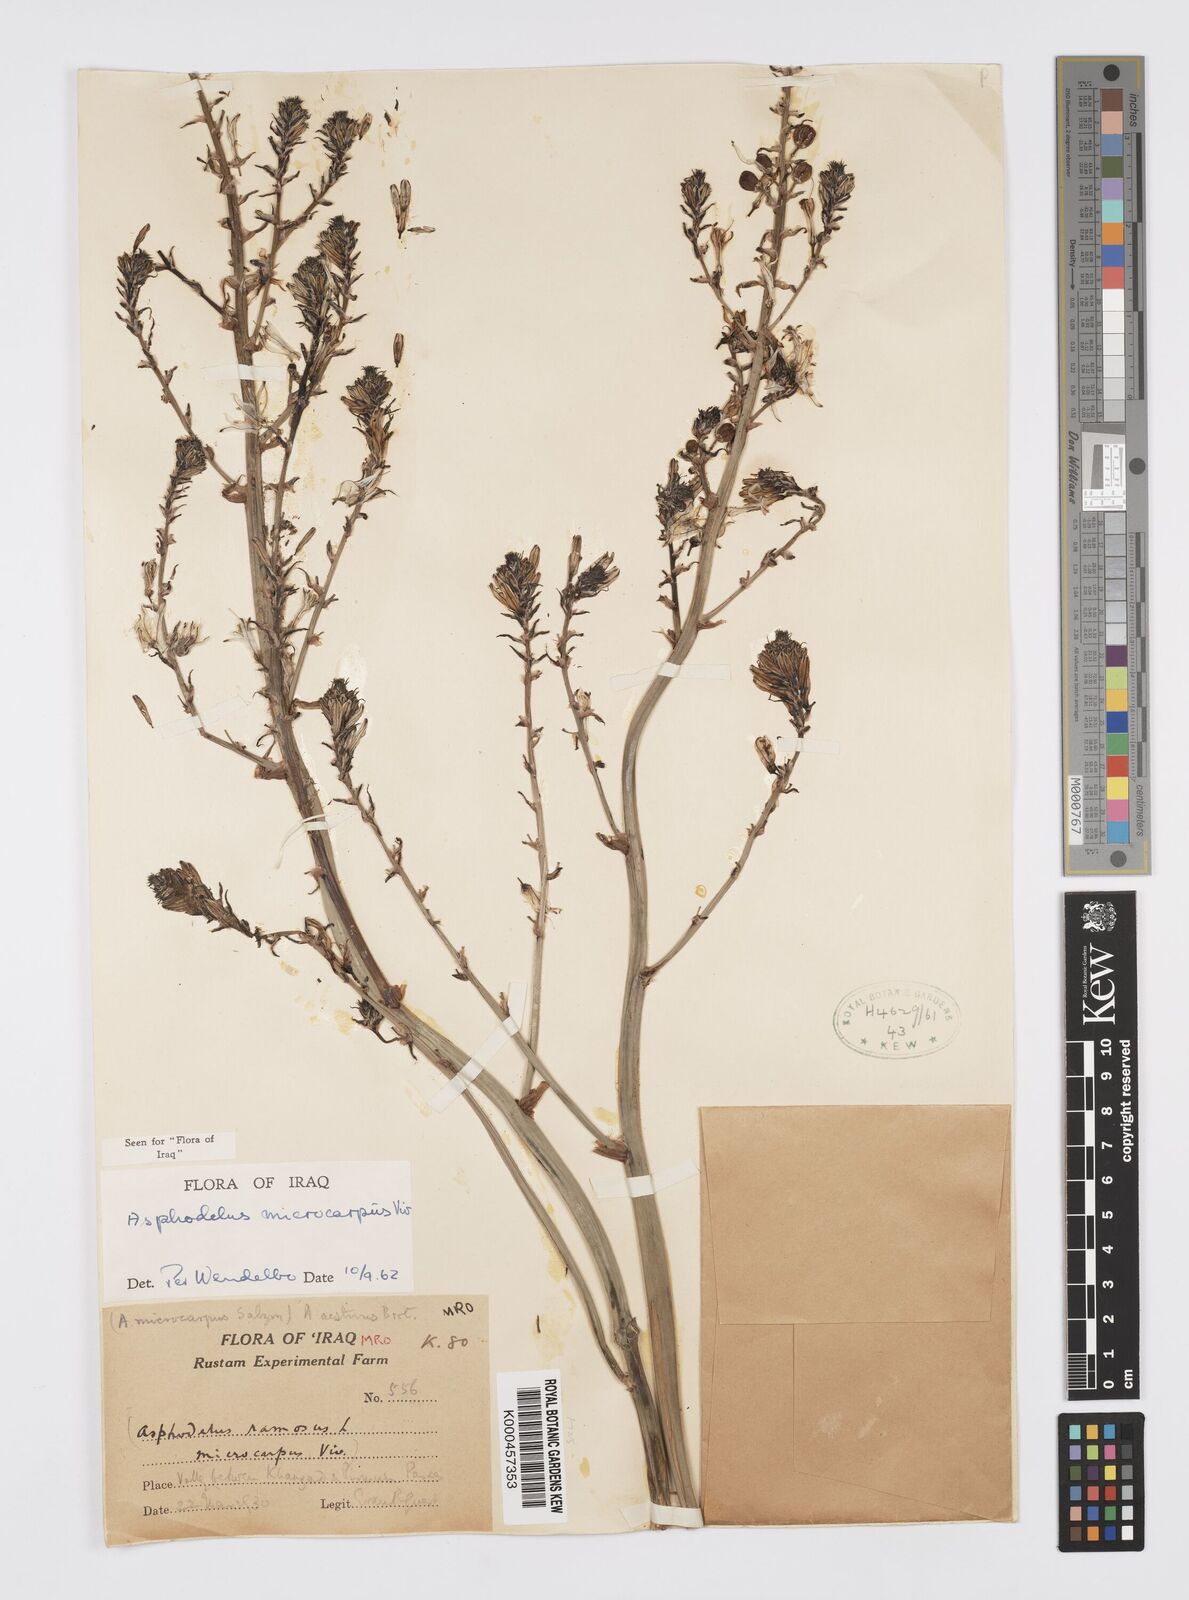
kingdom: Plantae
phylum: Tracheophyta
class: Liliopsida
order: Asparagales
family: Asphodelaceae
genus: Asphodelus
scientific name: Asphodelus aestivus
